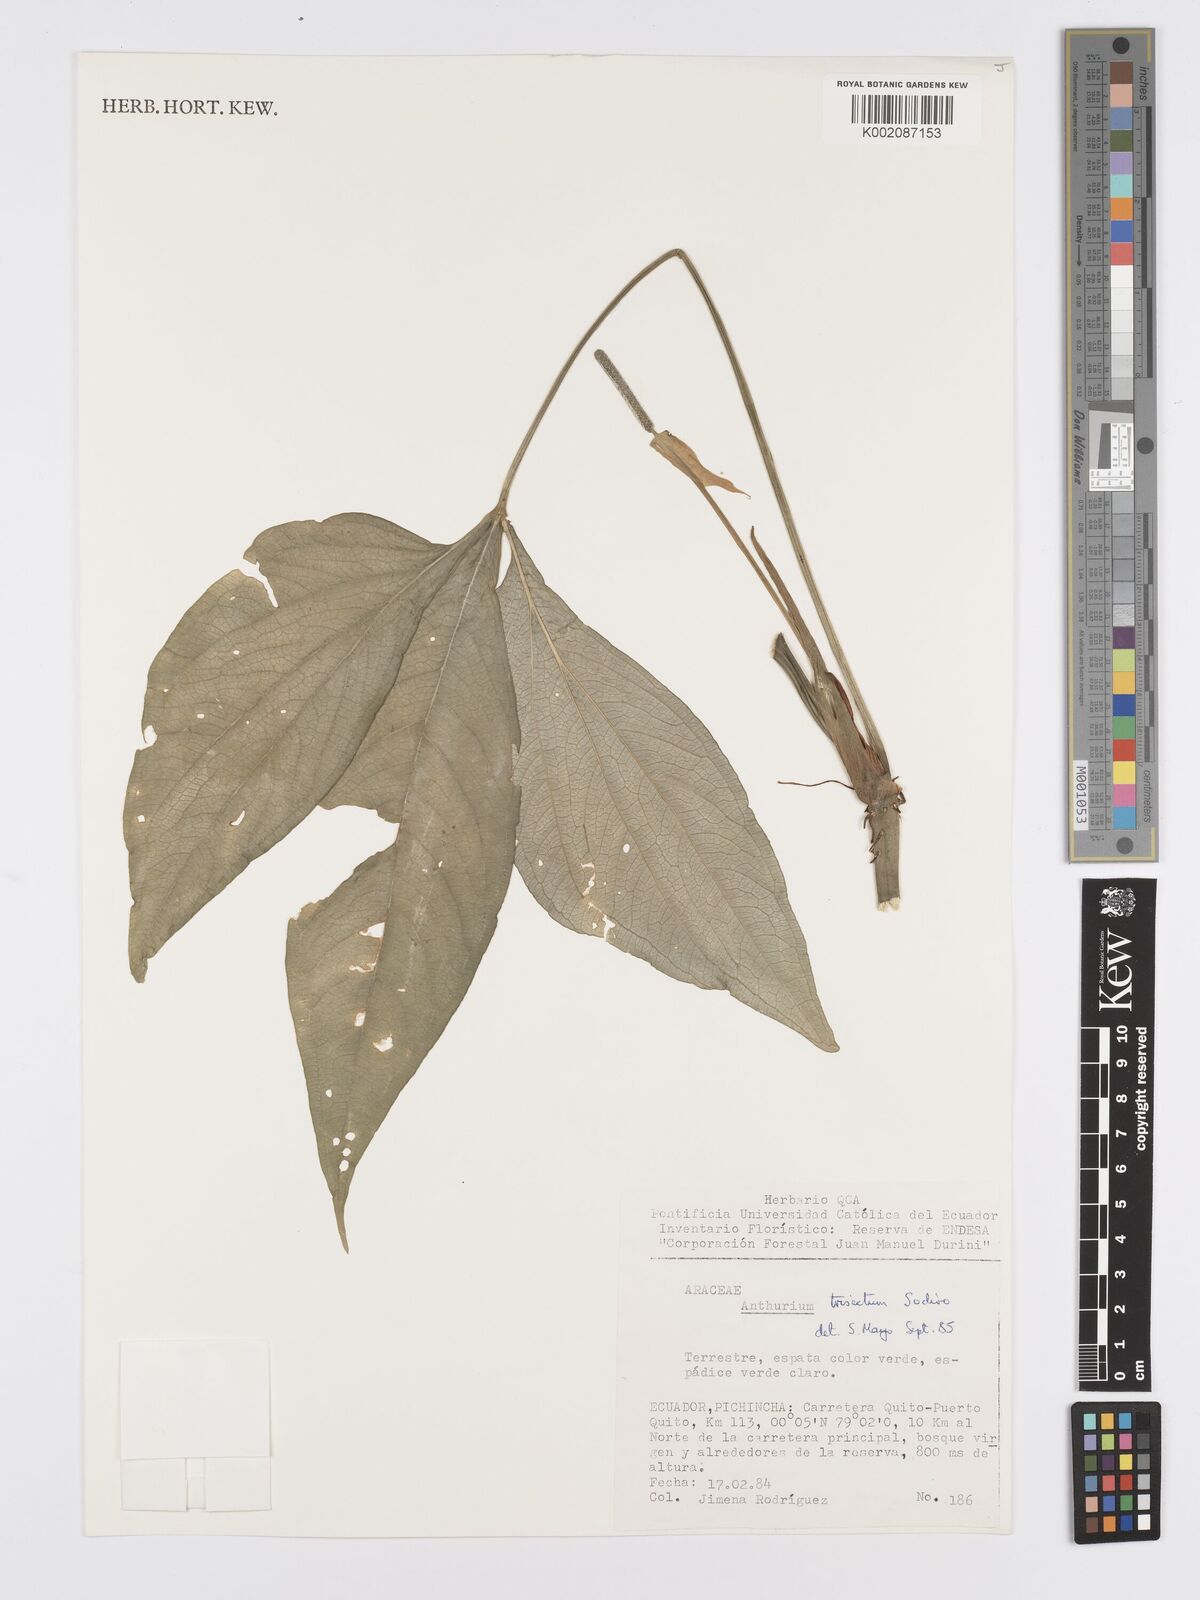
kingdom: Plantae
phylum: Tracheophyta
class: Liliopsida
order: Alismatales
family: Araceae
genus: Anthurium
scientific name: Anthurium trisectum
